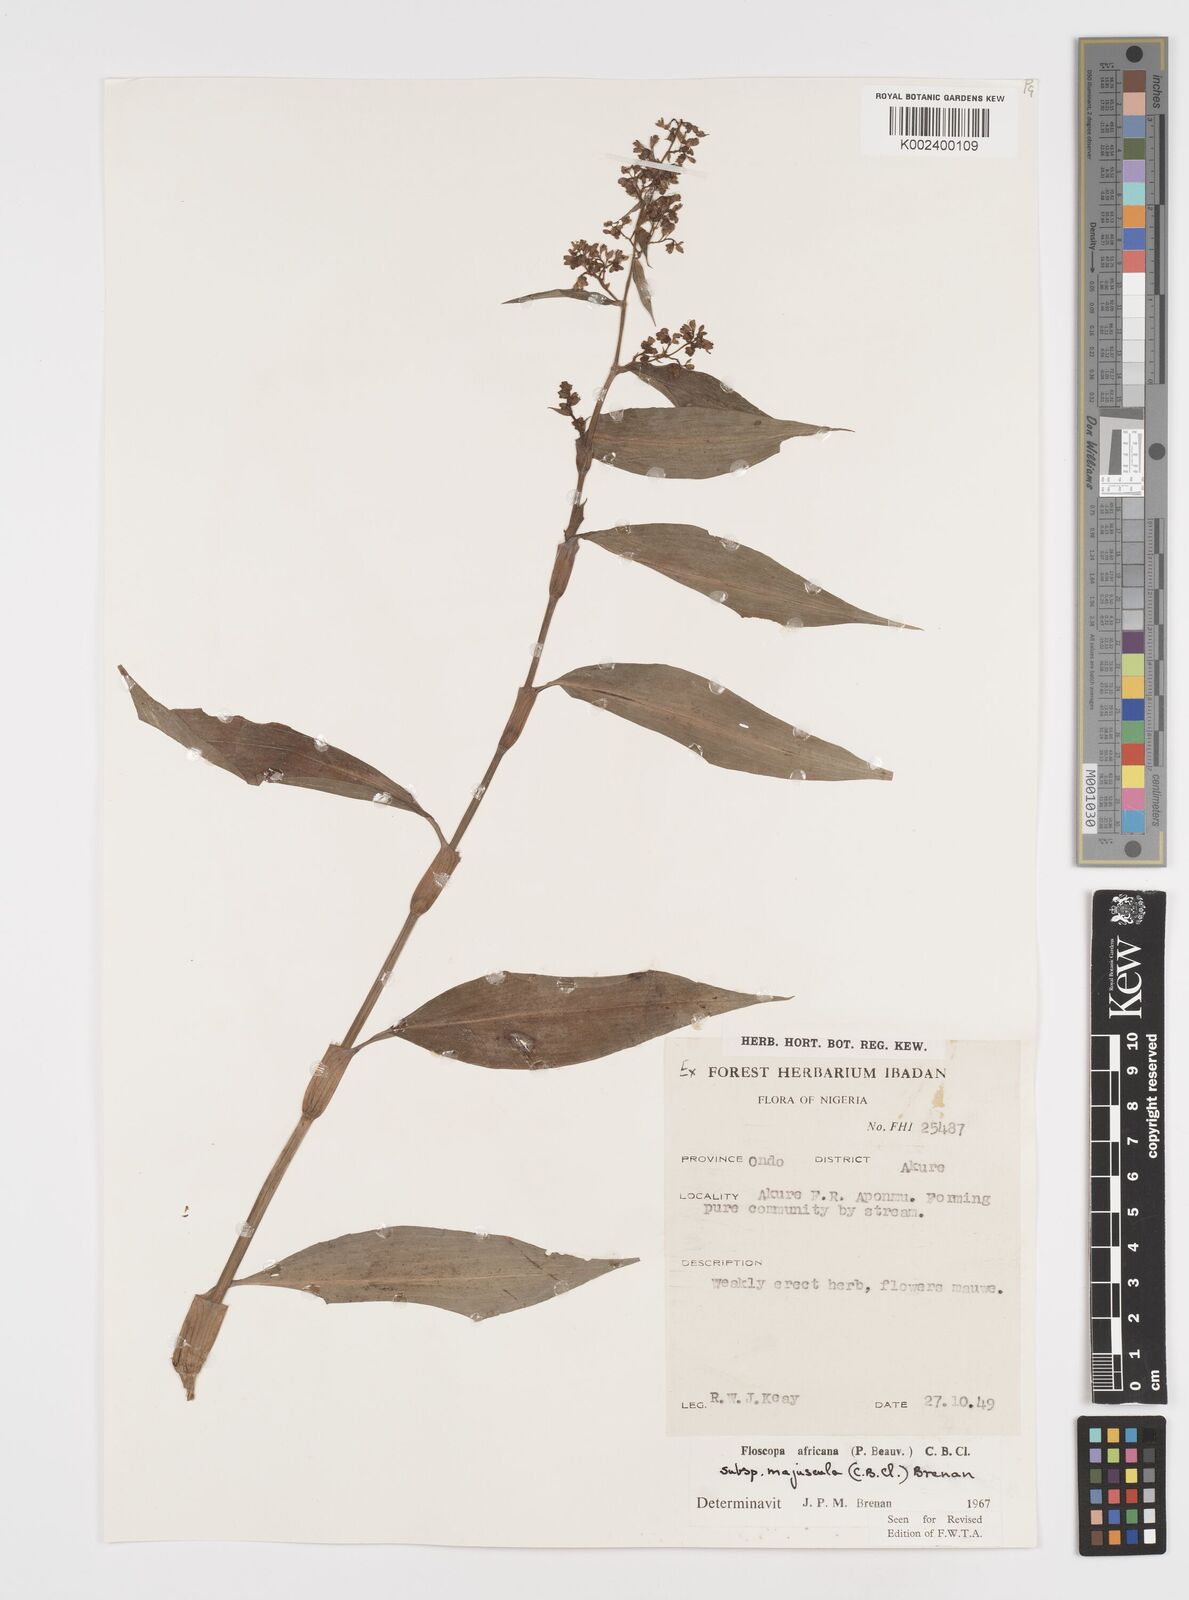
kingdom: Plantae
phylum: Tracheophyta
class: Liliopsida
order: Commelinales
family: Commelinaceae
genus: Floscopa
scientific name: Floscopa africana
